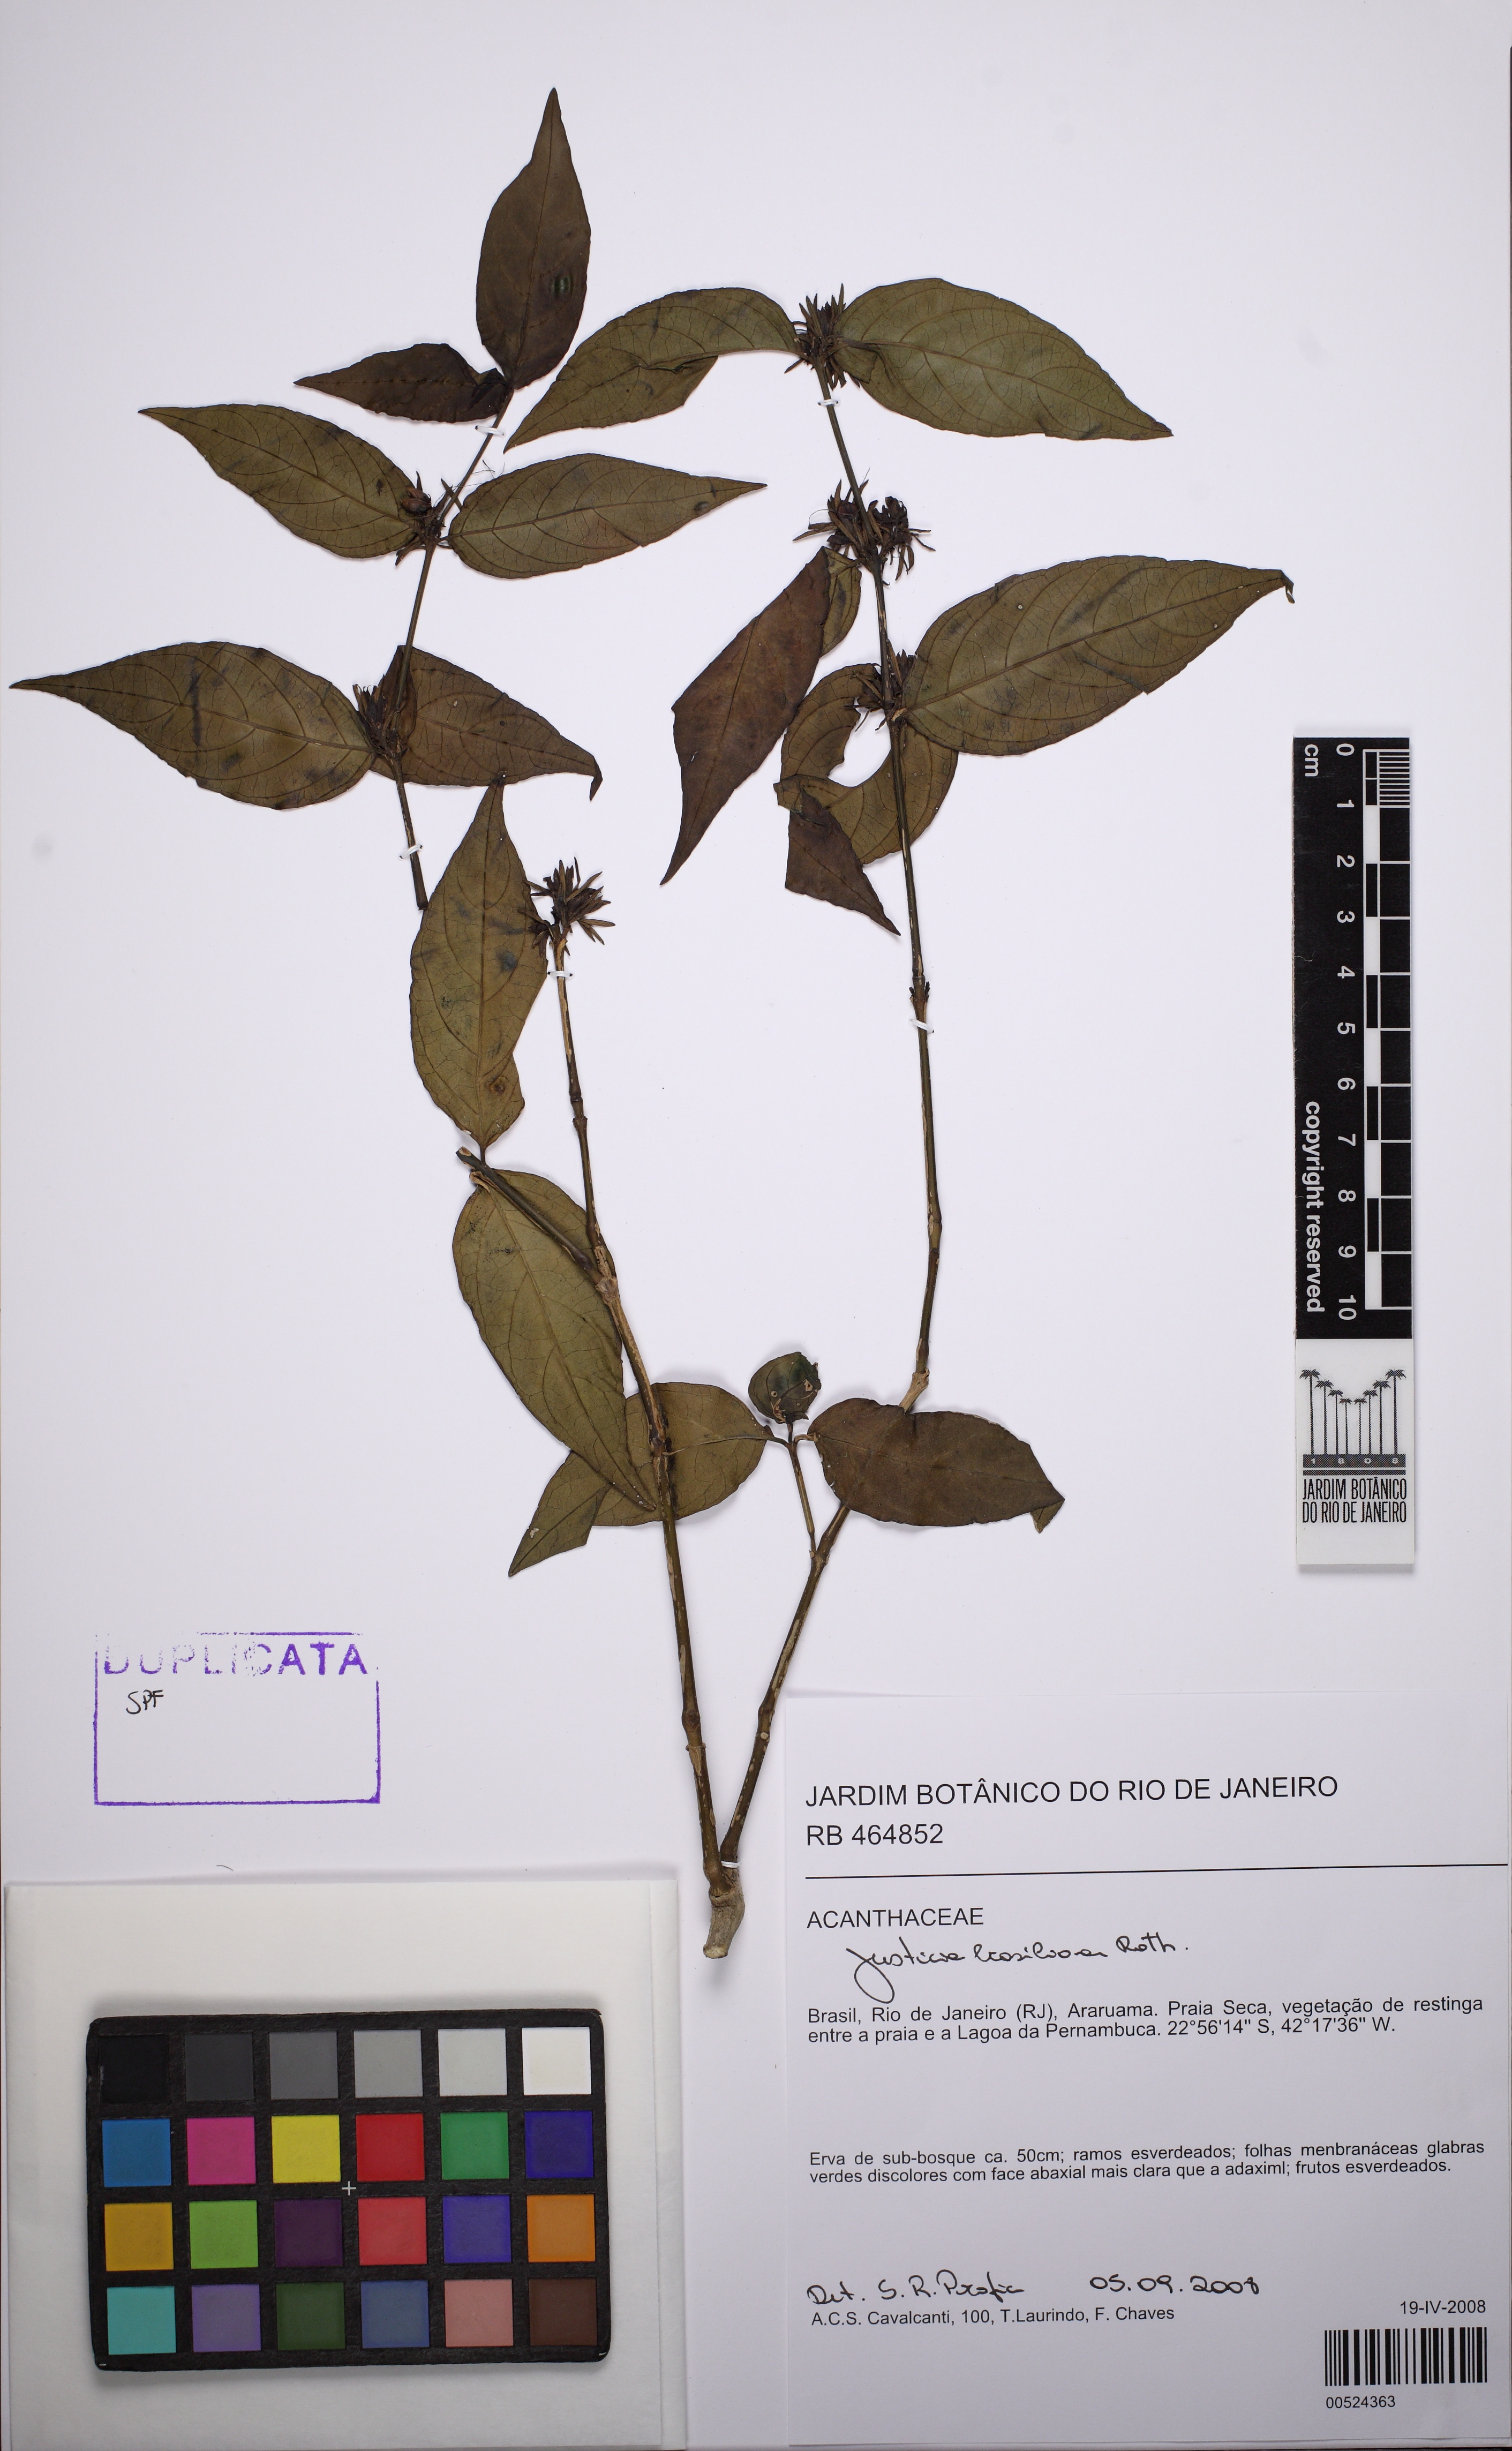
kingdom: Plantae
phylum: Tracheophyta
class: Magnoliopsida
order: Lamiales
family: Acanthaceae
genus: Justicia
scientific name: Justicia brasiliana
